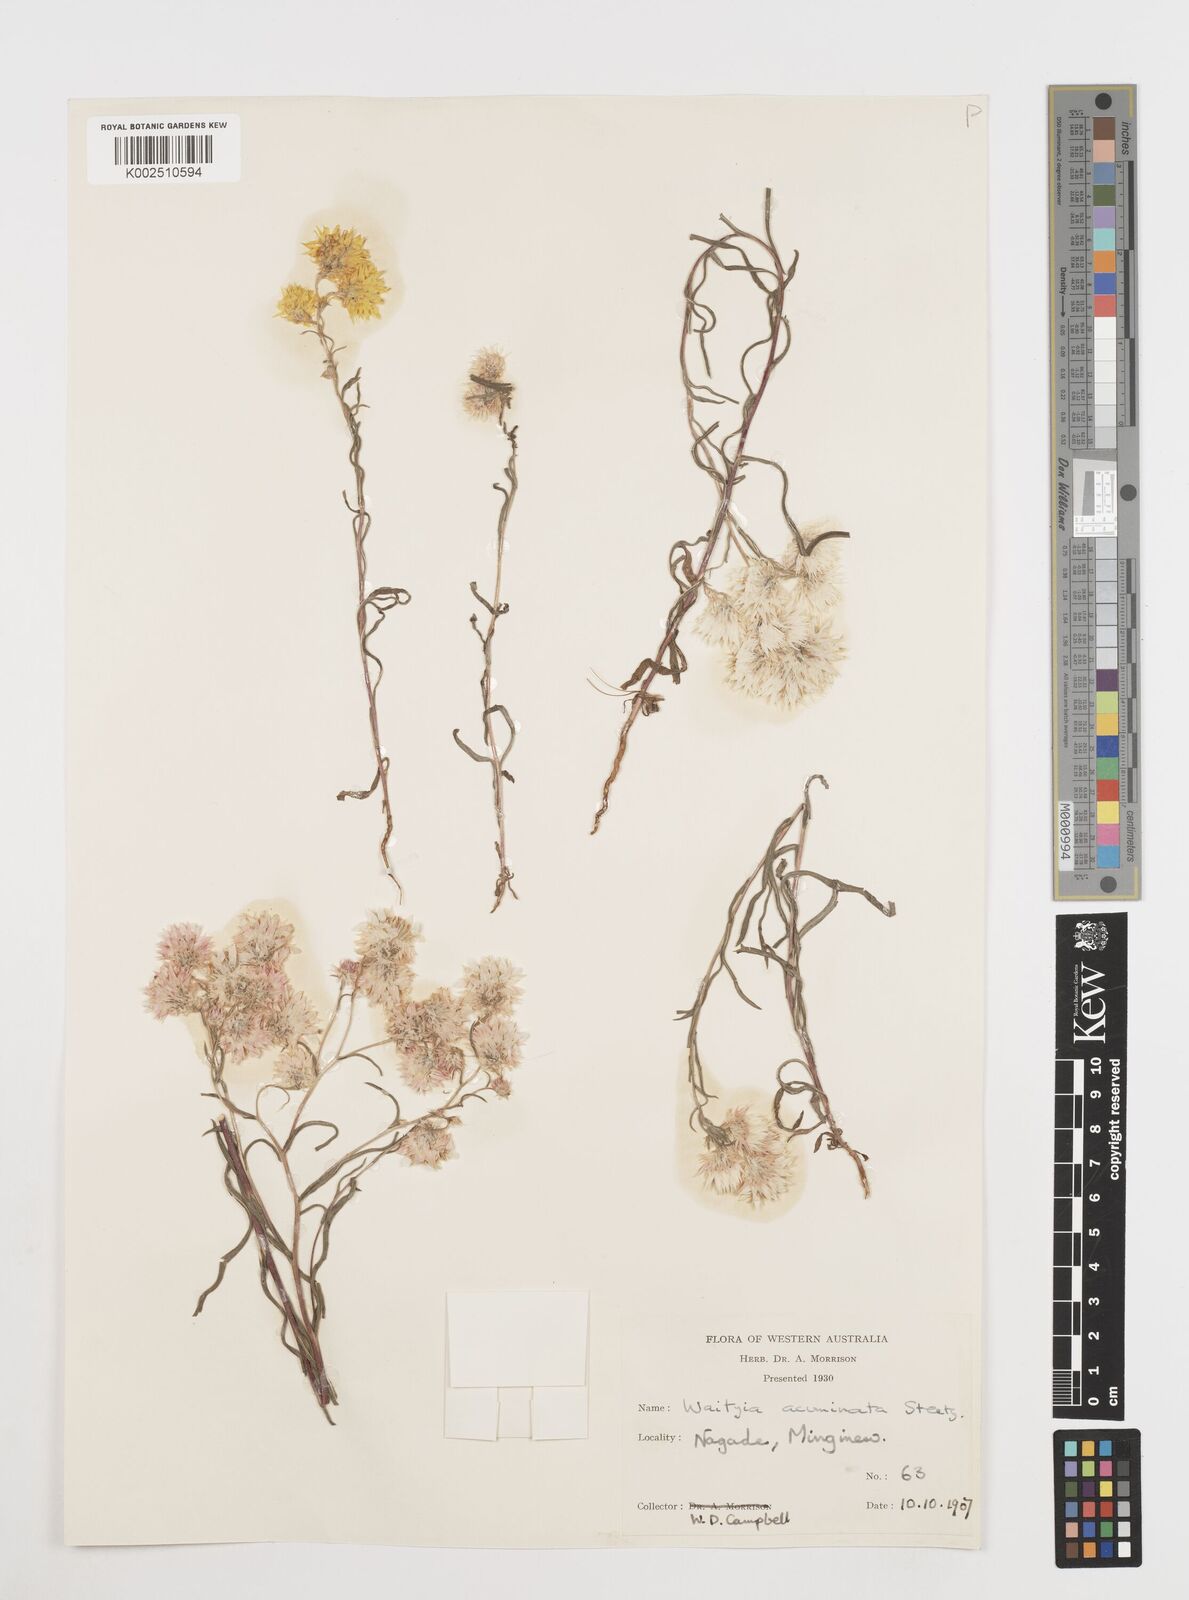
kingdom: Plantae
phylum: Tracheophyta
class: Magnoliopsida
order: Asterales
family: Asteraceae
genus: Waitzia
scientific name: Waitzia acuminata
